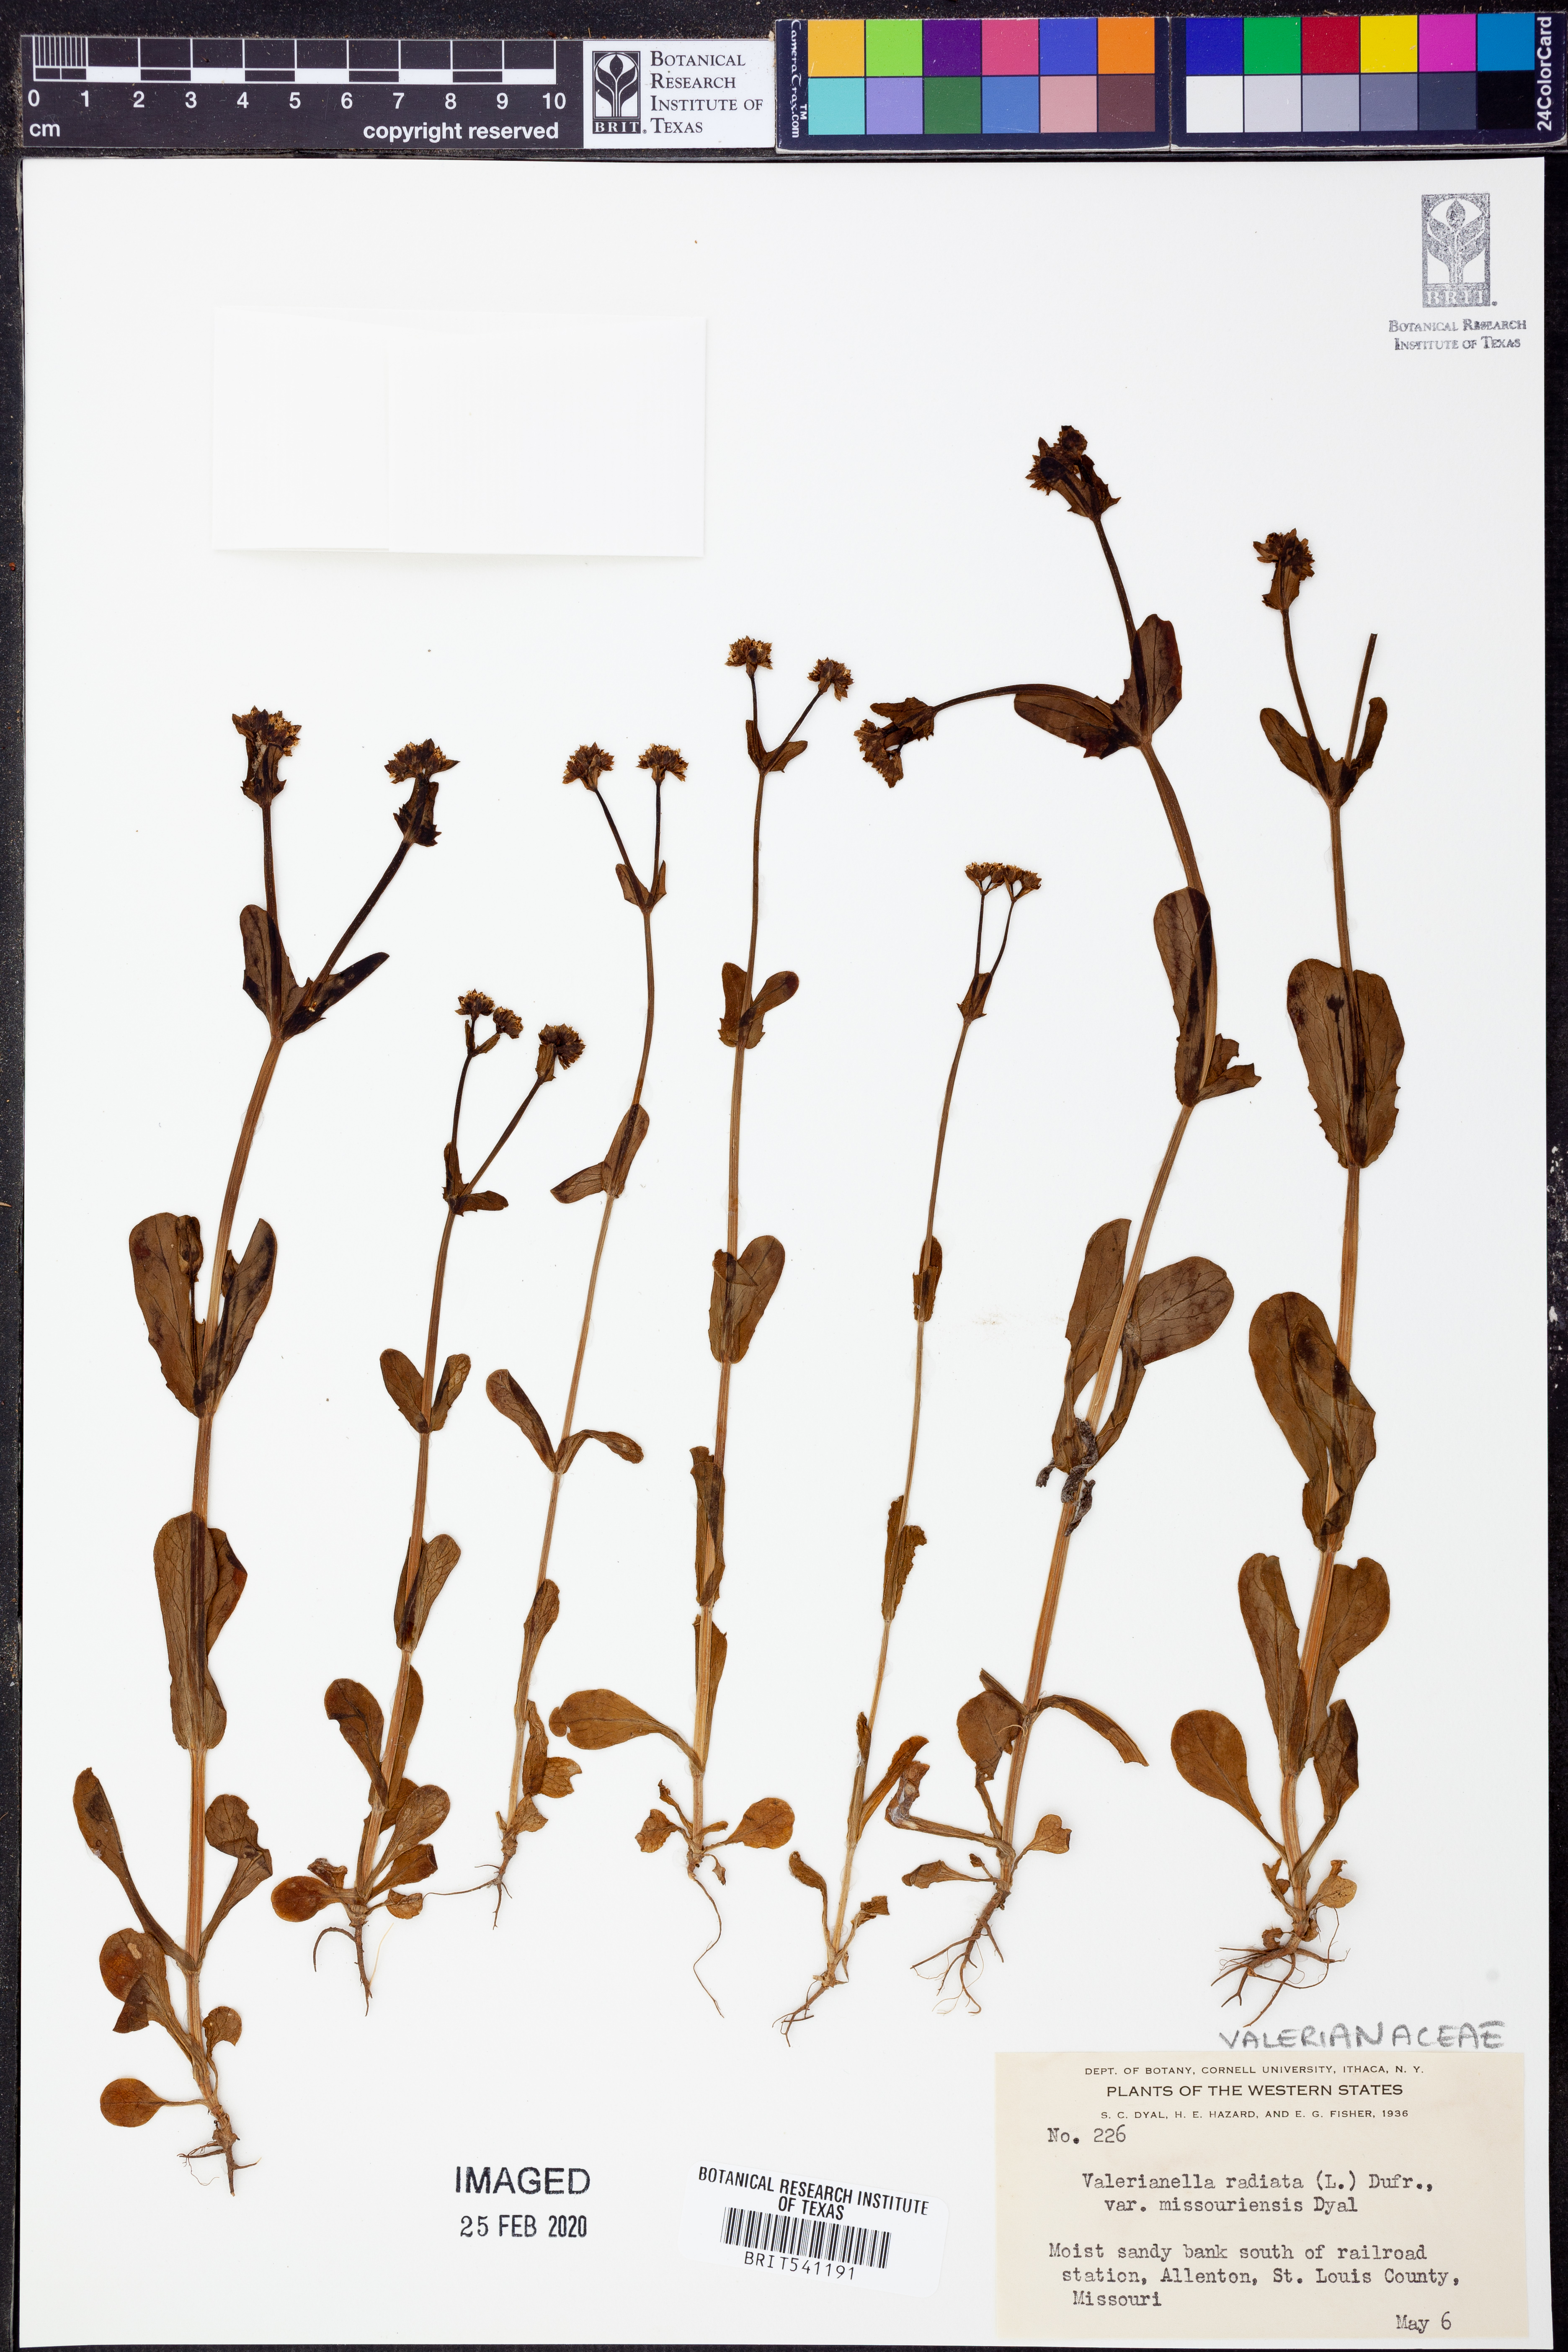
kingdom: Plantae
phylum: Tracheophyta
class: Magnoliopsida
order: Dipsacales
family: Caprifoliaceae
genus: Valerianella
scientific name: Valerianella radiata
